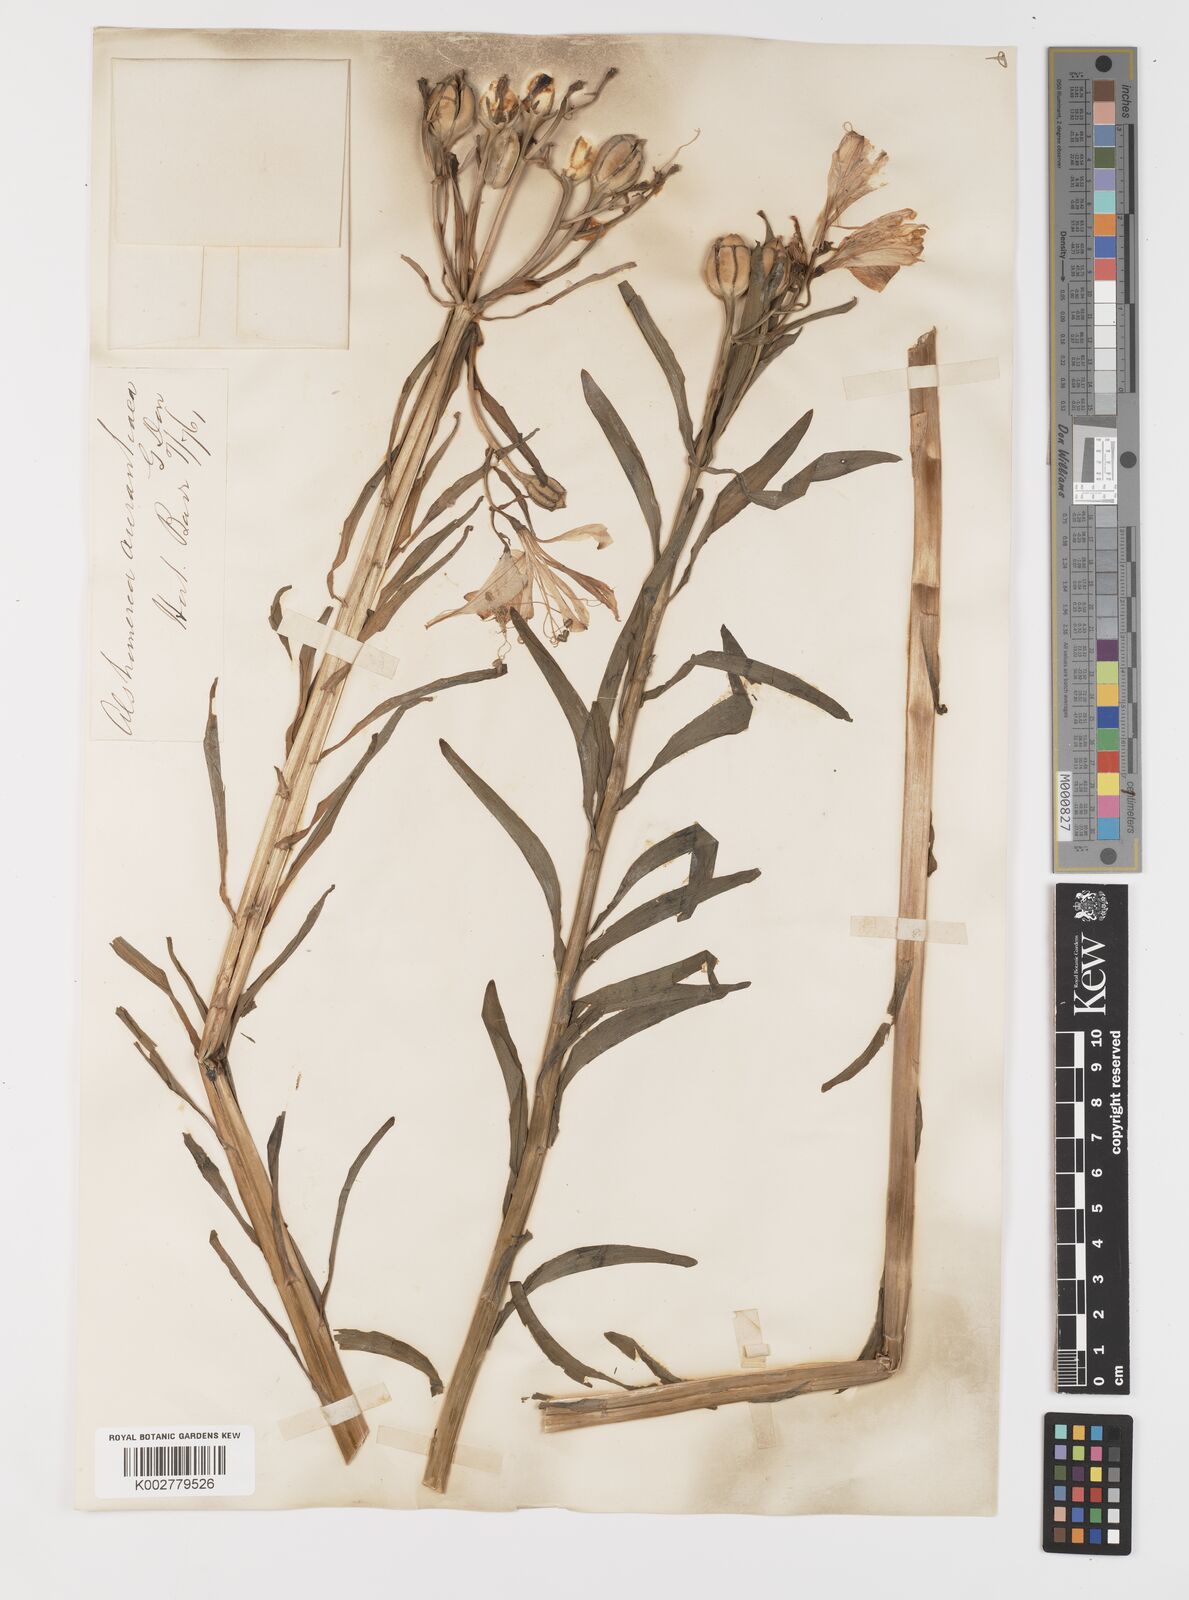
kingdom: Plantae
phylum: Tracheophyta
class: Liliopsida
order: Liliales
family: Alstroemeriaceae
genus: Alstroemeria
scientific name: Alstroemeria aurea
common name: Peruvian lily
